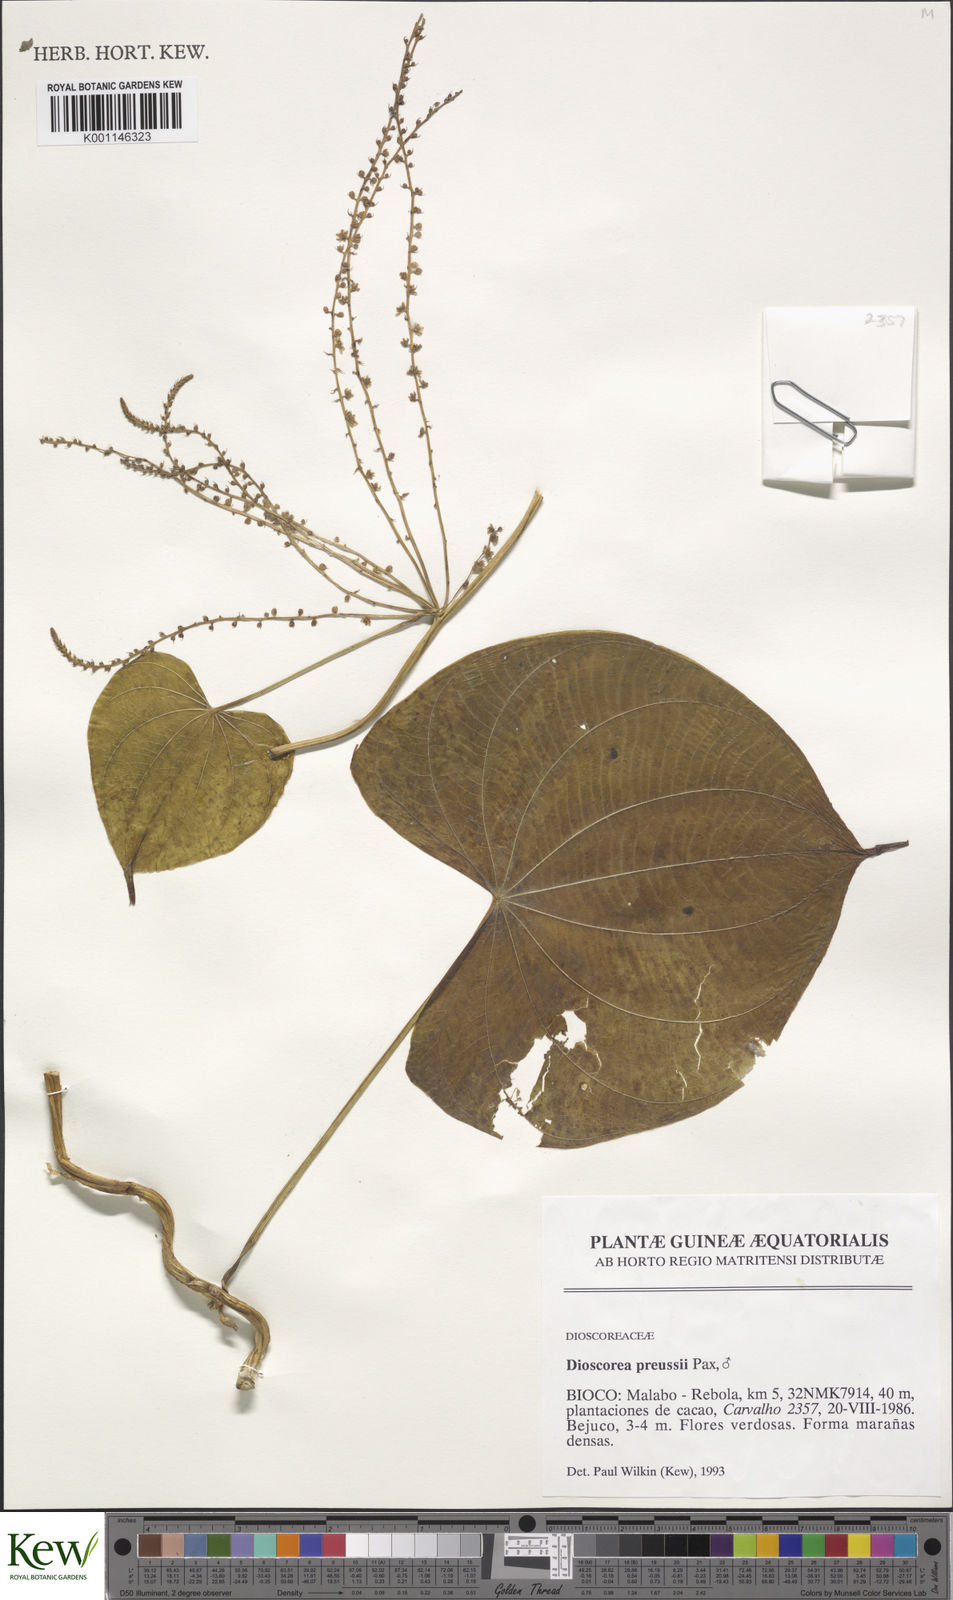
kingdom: Plantae
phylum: Tracheophyta
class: Liliopsida
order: Dioscoreales
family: Dioscoreaceae
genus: Dioscorea
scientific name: Dioscorea preussii
